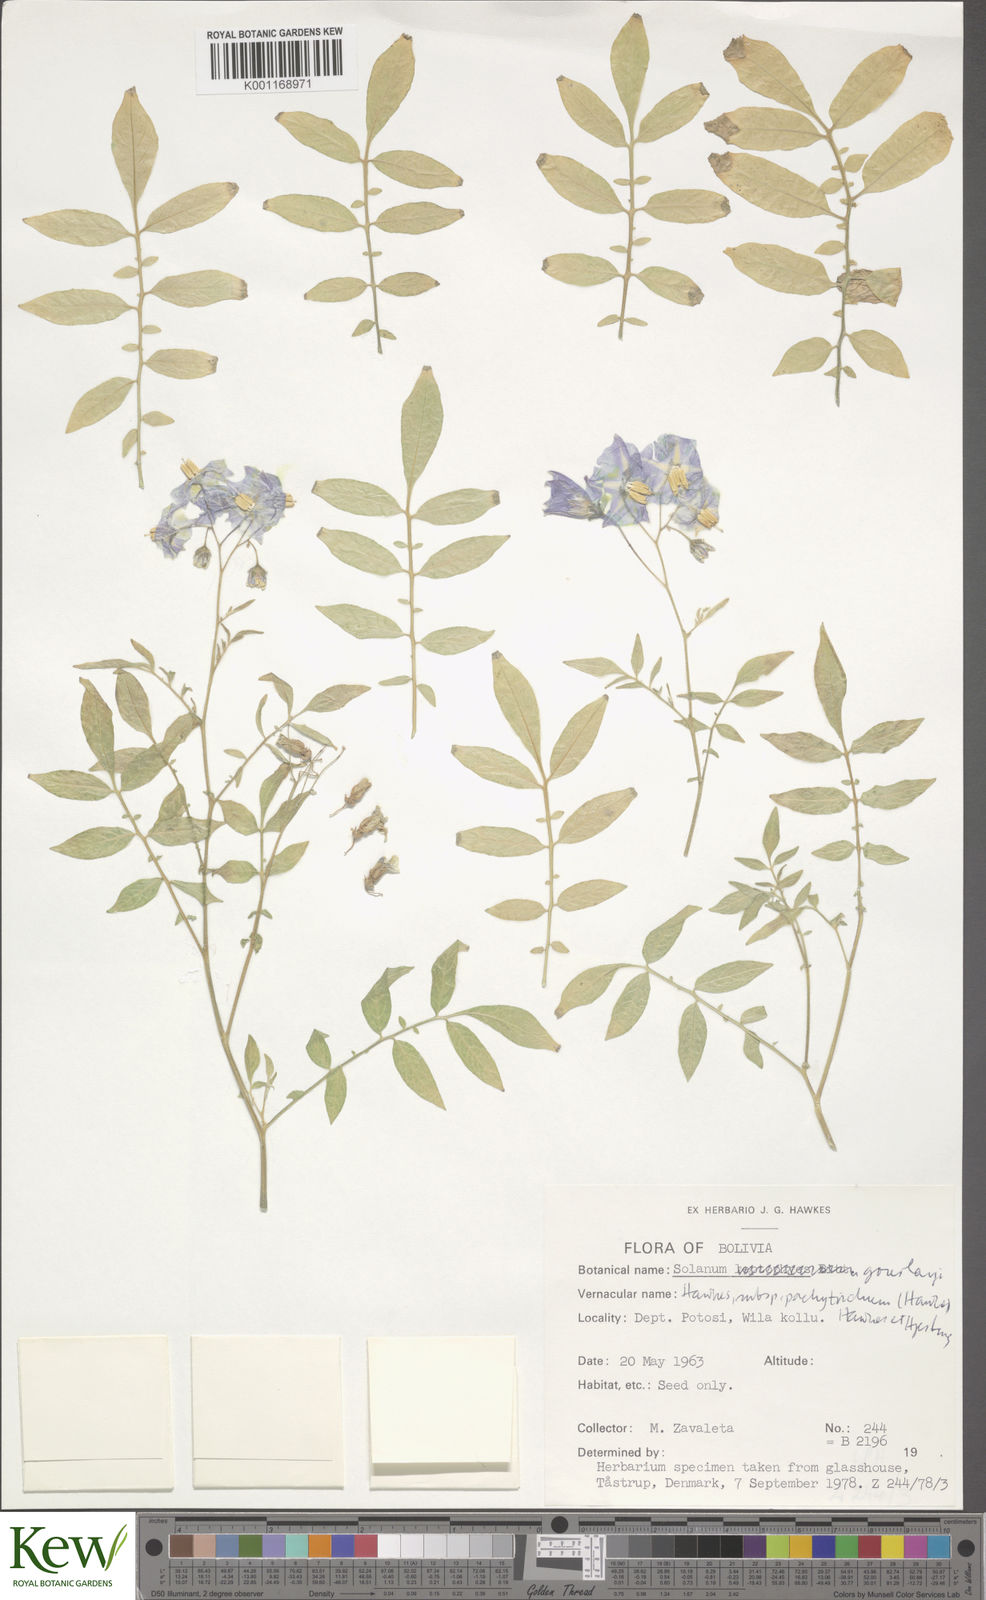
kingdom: Plantae
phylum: Tracheophyta
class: Magnoliopsida
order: Solanales
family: Solanaceae
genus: Solanum
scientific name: Solanum brevicaule
